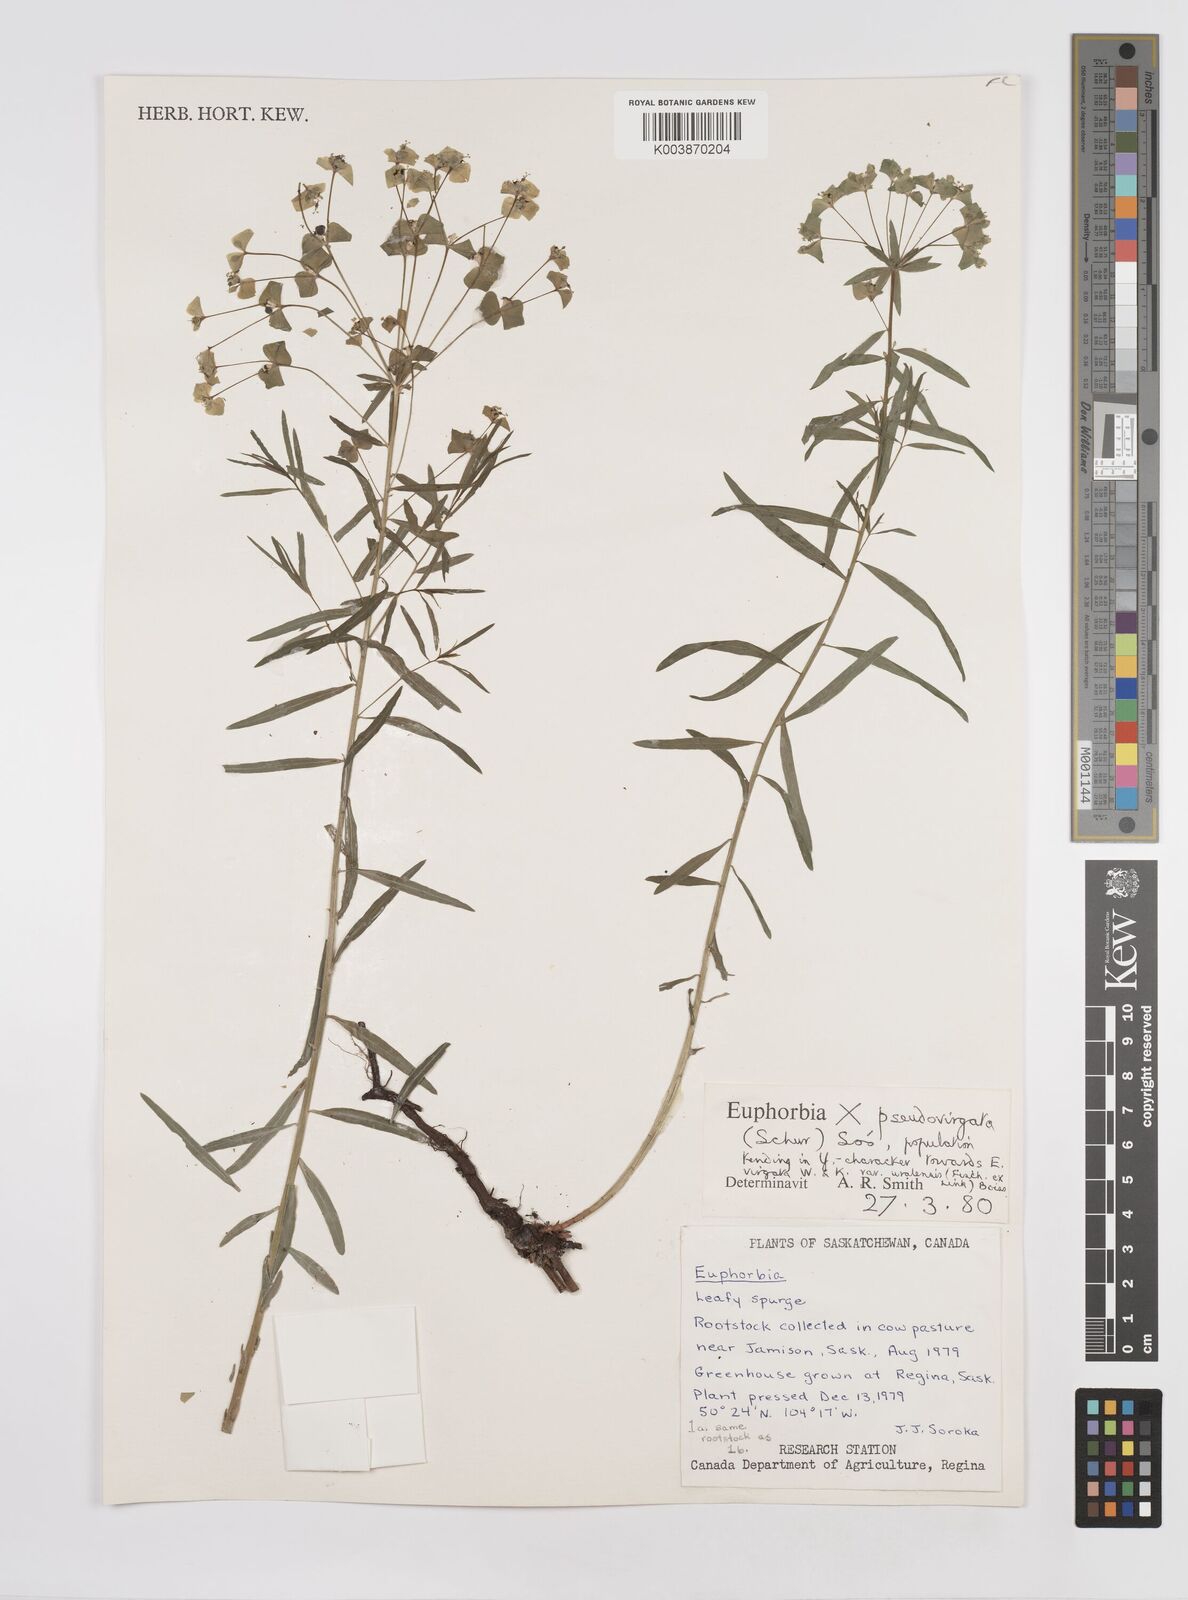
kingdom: Plantae
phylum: Tracheophyta
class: Magnoliopsida
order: Malpighiales
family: Euphorbiaceae
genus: Euphorbia
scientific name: Euphorbia virgata
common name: Leafy spurge
